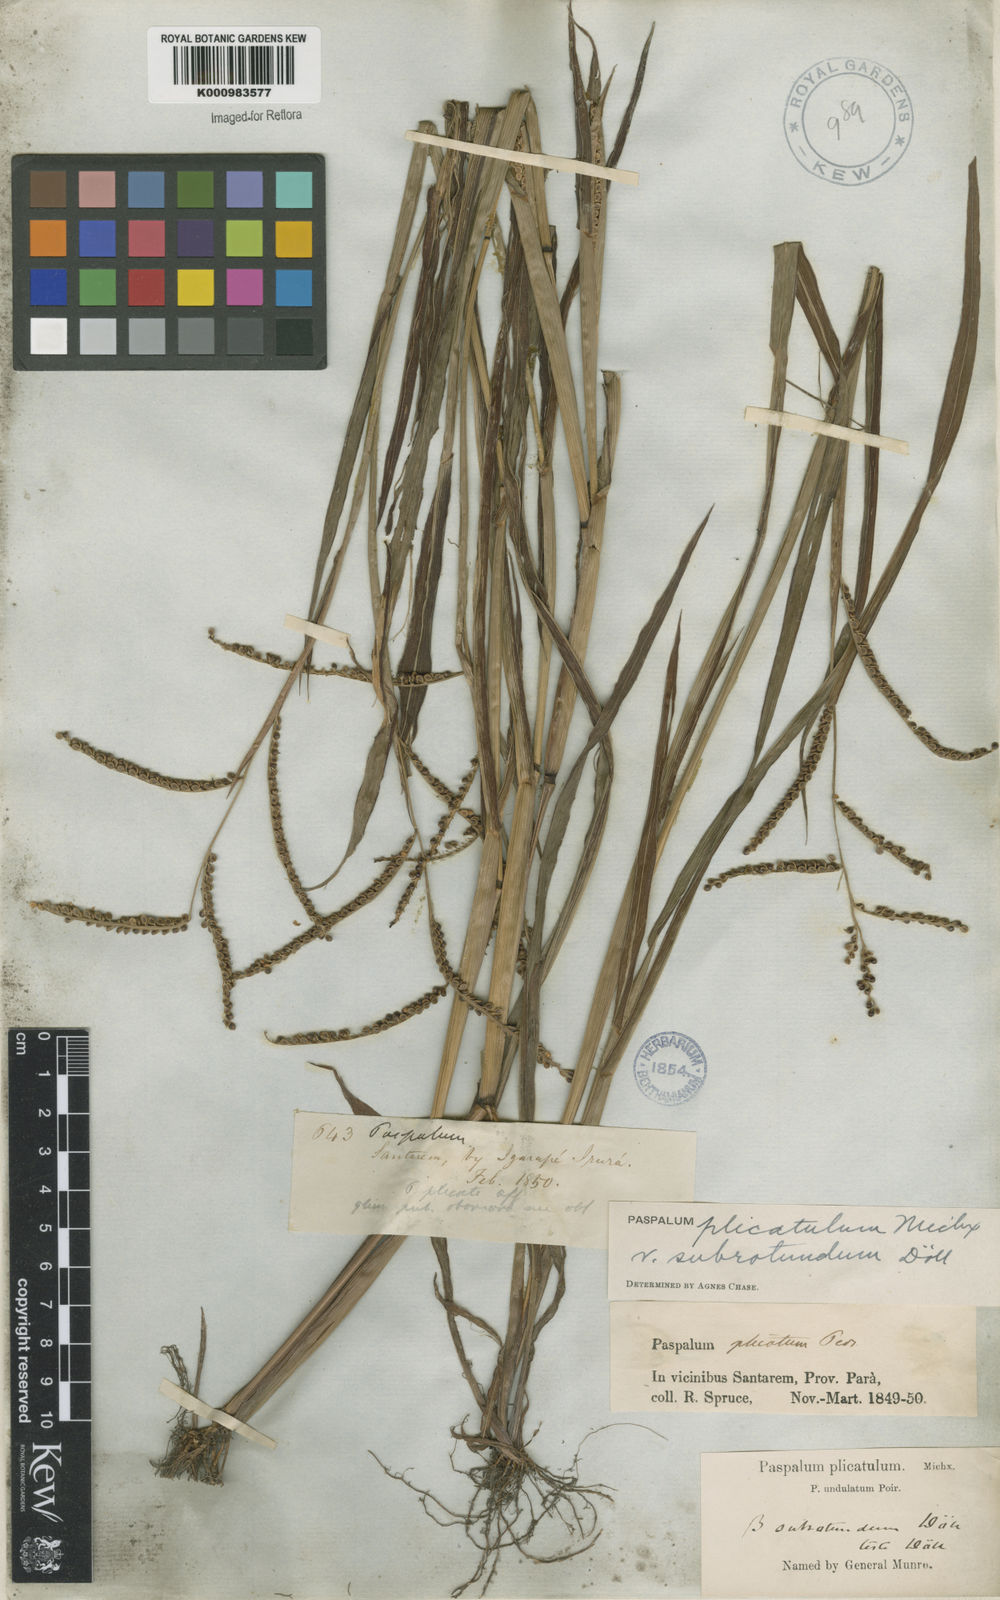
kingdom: Plantae
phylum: Tracheophyta
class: Liliopsida
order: Poales
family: Poaceae
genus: Paspalum
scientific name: Paspalum
